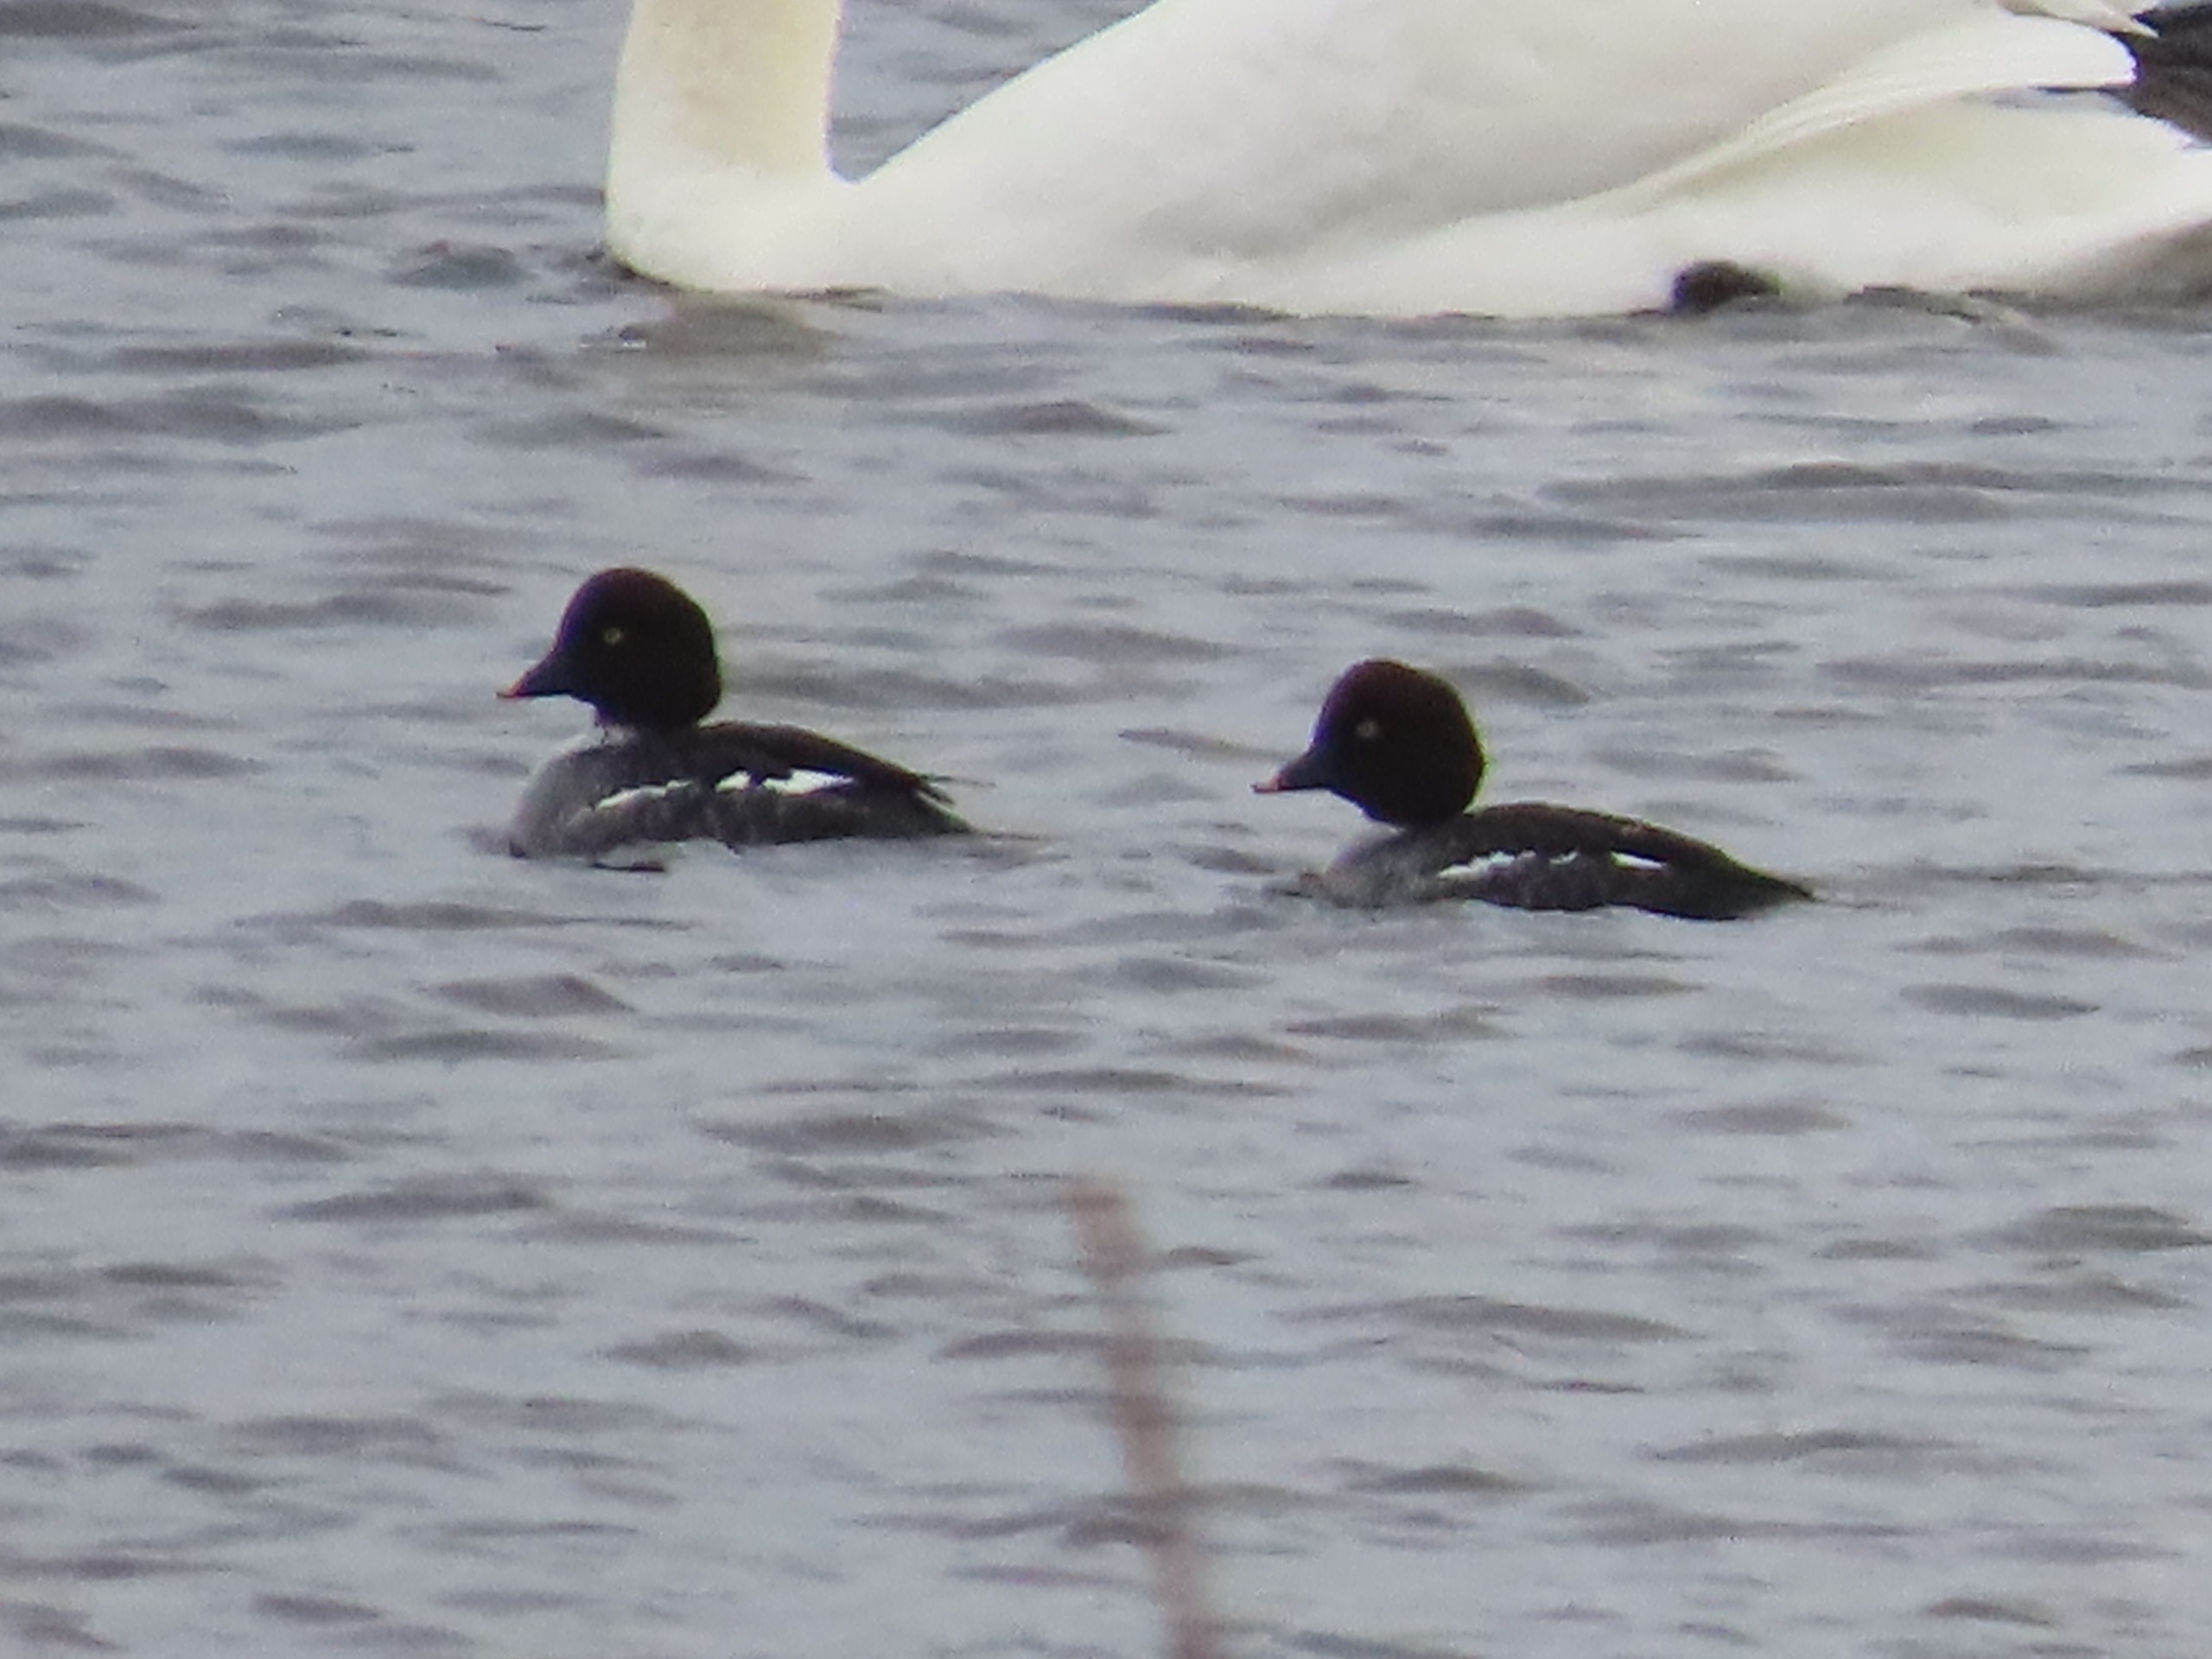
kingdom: Animalia
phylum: Chordata
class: Aves
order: Anseriformes
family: Anatidae
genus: Bucephala
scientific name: Bucephala clangula
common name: Hvinand
